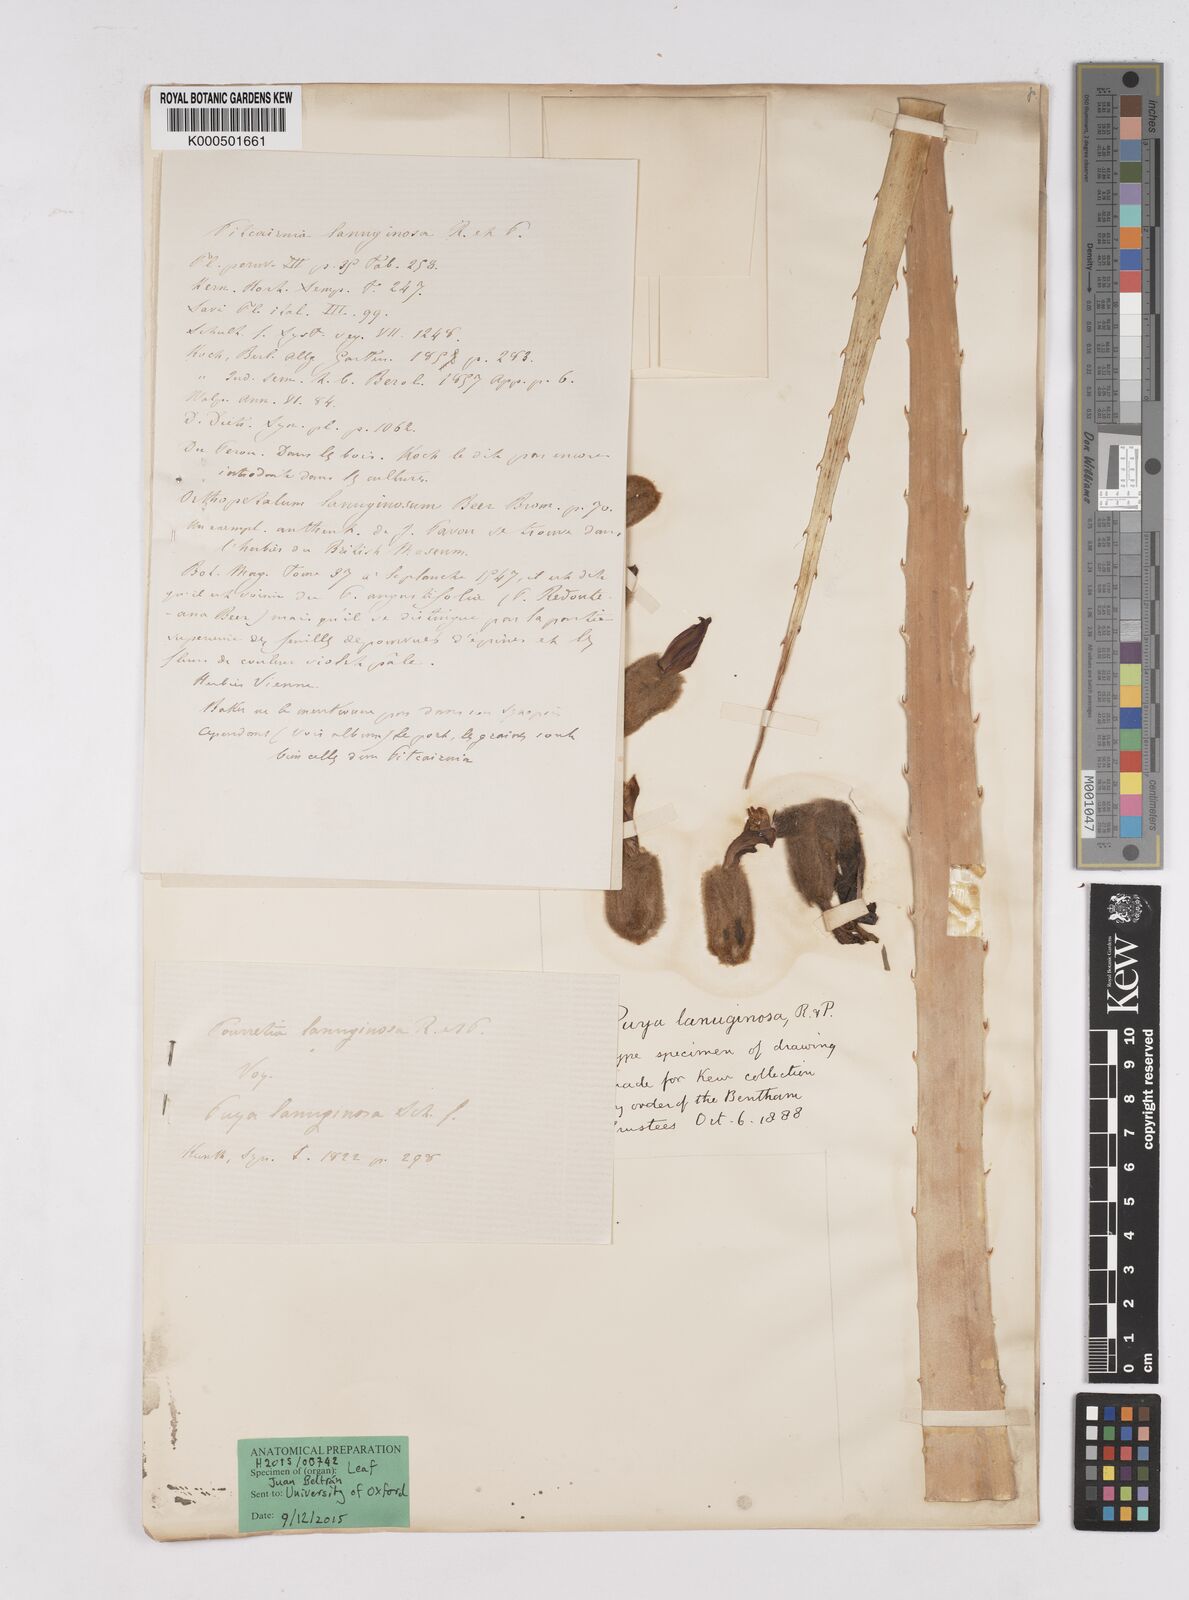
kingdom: Plantae
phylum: Tracheophyta
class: Liliopsida
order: Poales
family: Bromeliaceae
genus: Puya
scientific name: Puya lanuginosa
